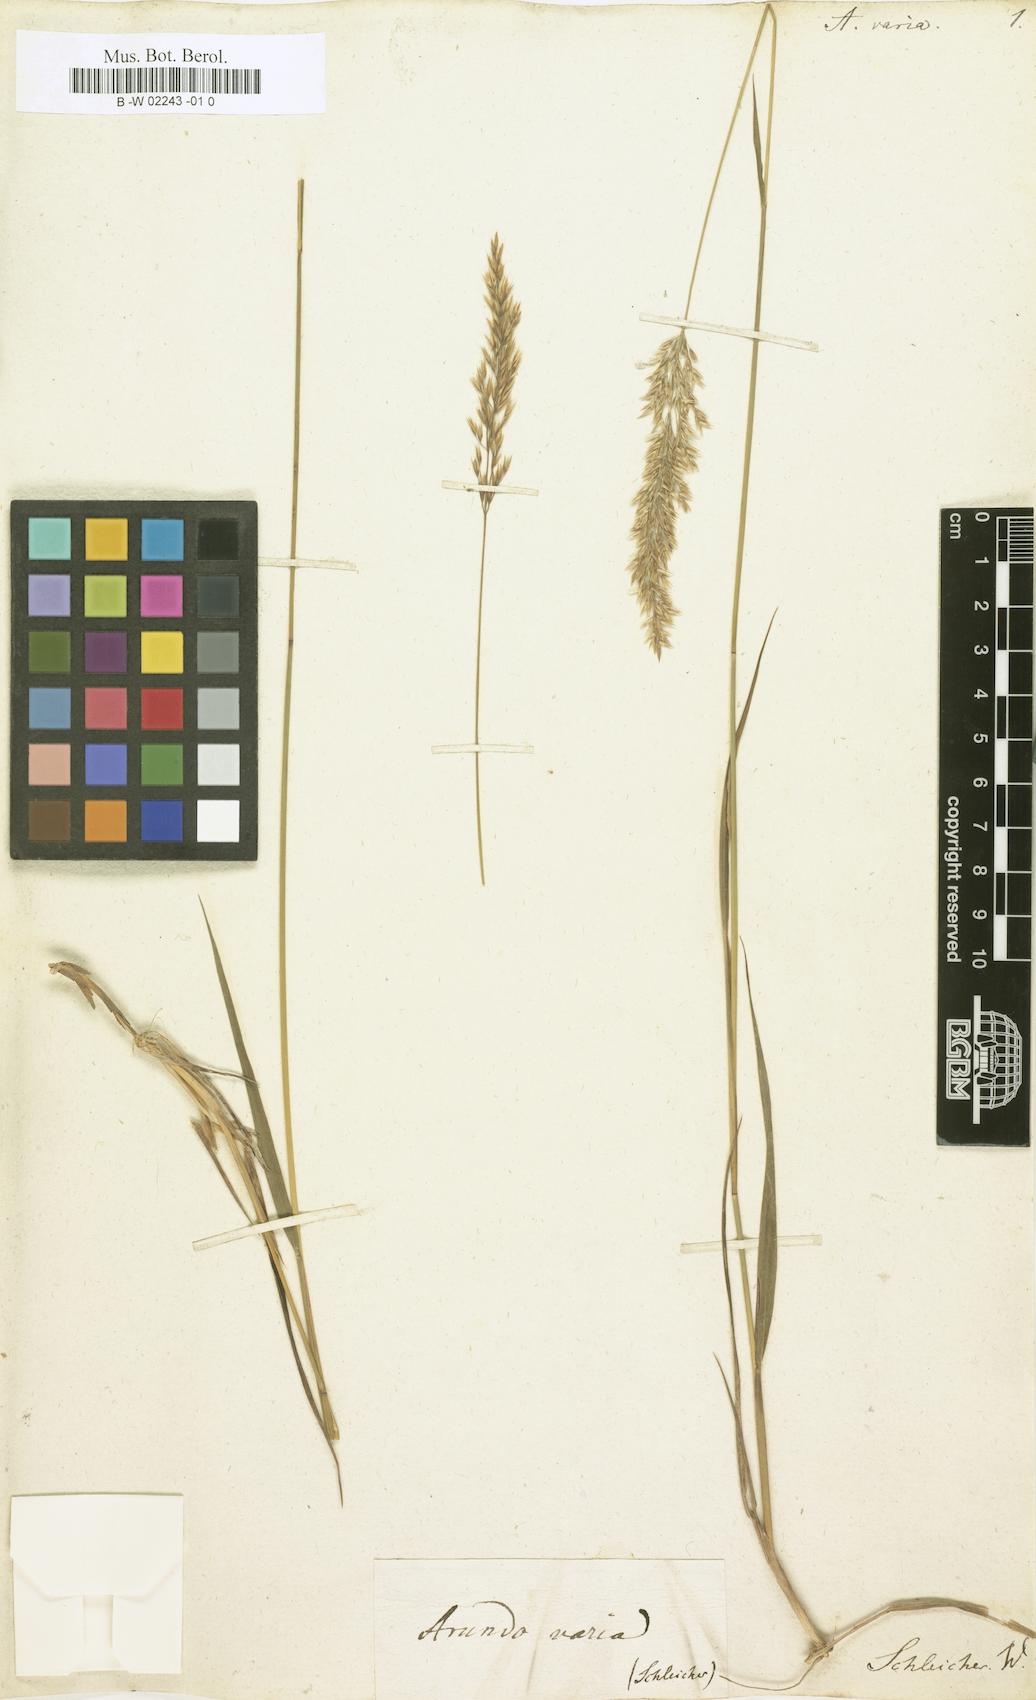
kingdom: Plantae
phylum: Tracheophyta
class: Liliopsida
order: Poales
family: Poaceae
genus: Calamagrostis
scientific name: Calamagrostis varia
